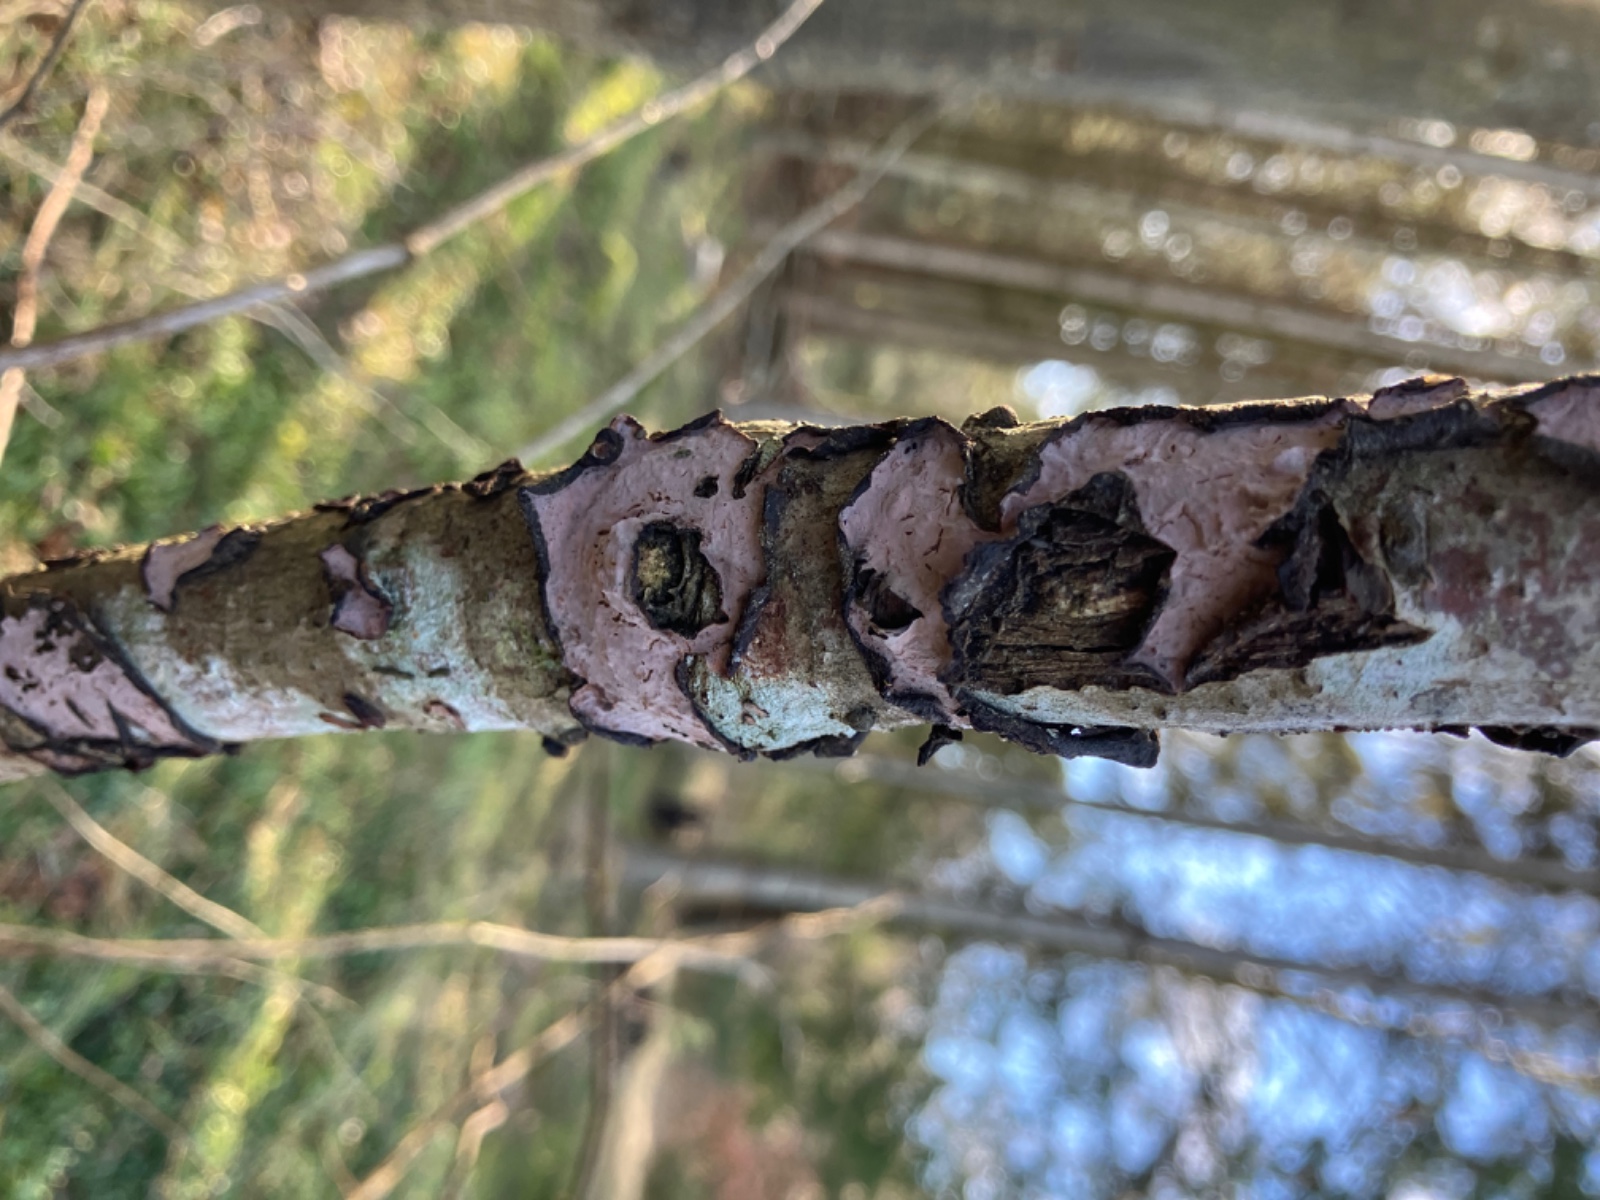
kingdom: Fungi
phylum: Basidiomycota
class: Agaricomycetes
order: Russulales
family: Peniophoraceae
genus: Peniophora
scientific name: Peniophora quercina
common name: ege-voksskind
